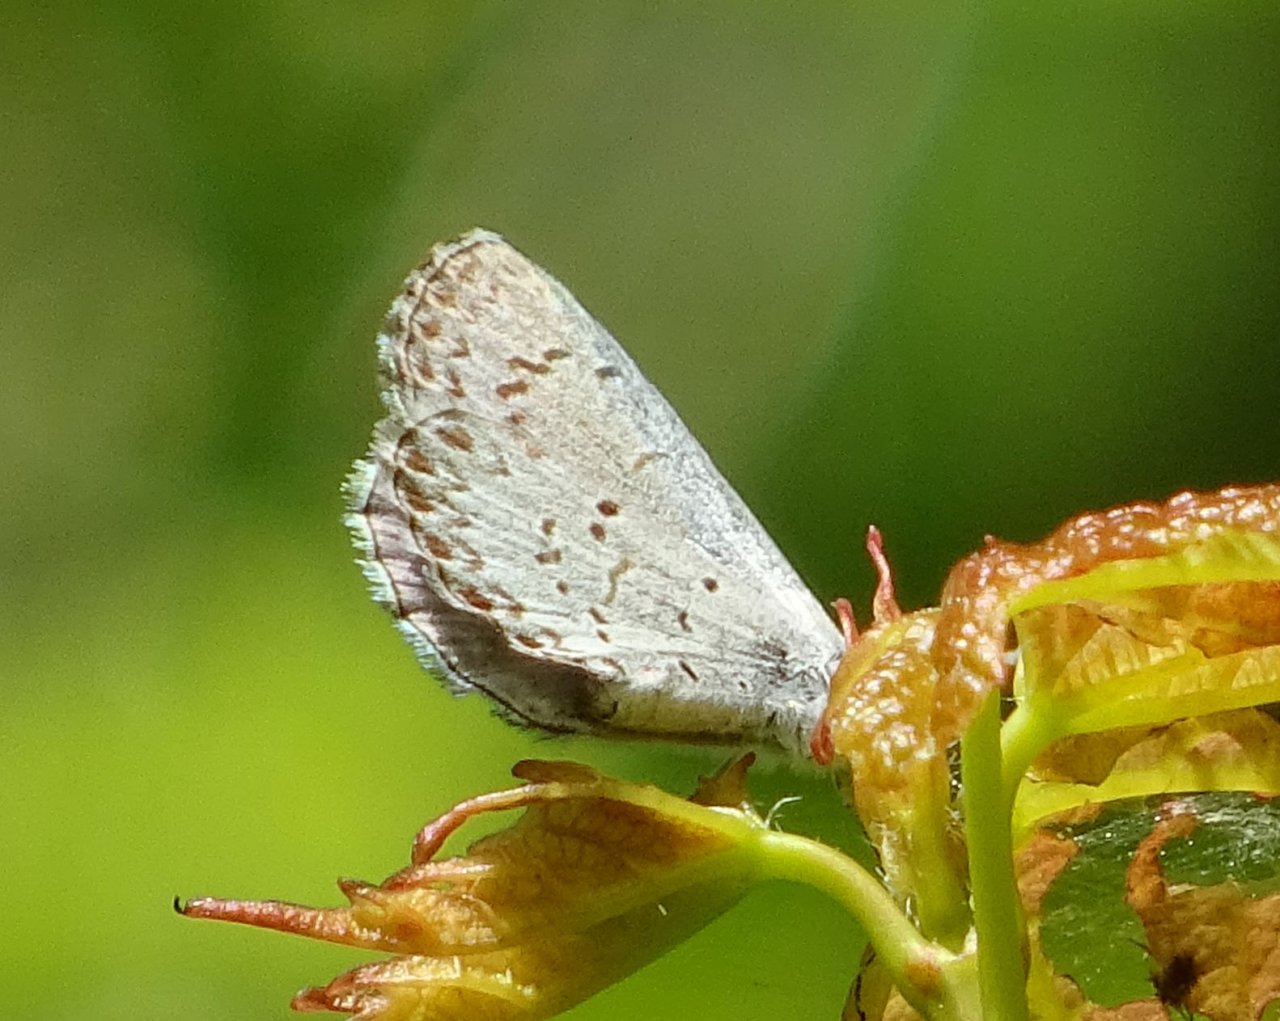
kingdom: Animalia
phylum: Arthropoda
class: Insecta
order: Lepidoptera
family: Lycaenidae
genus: Celastrina
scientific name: Celastrina lucia
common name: Northern Spring Azure
